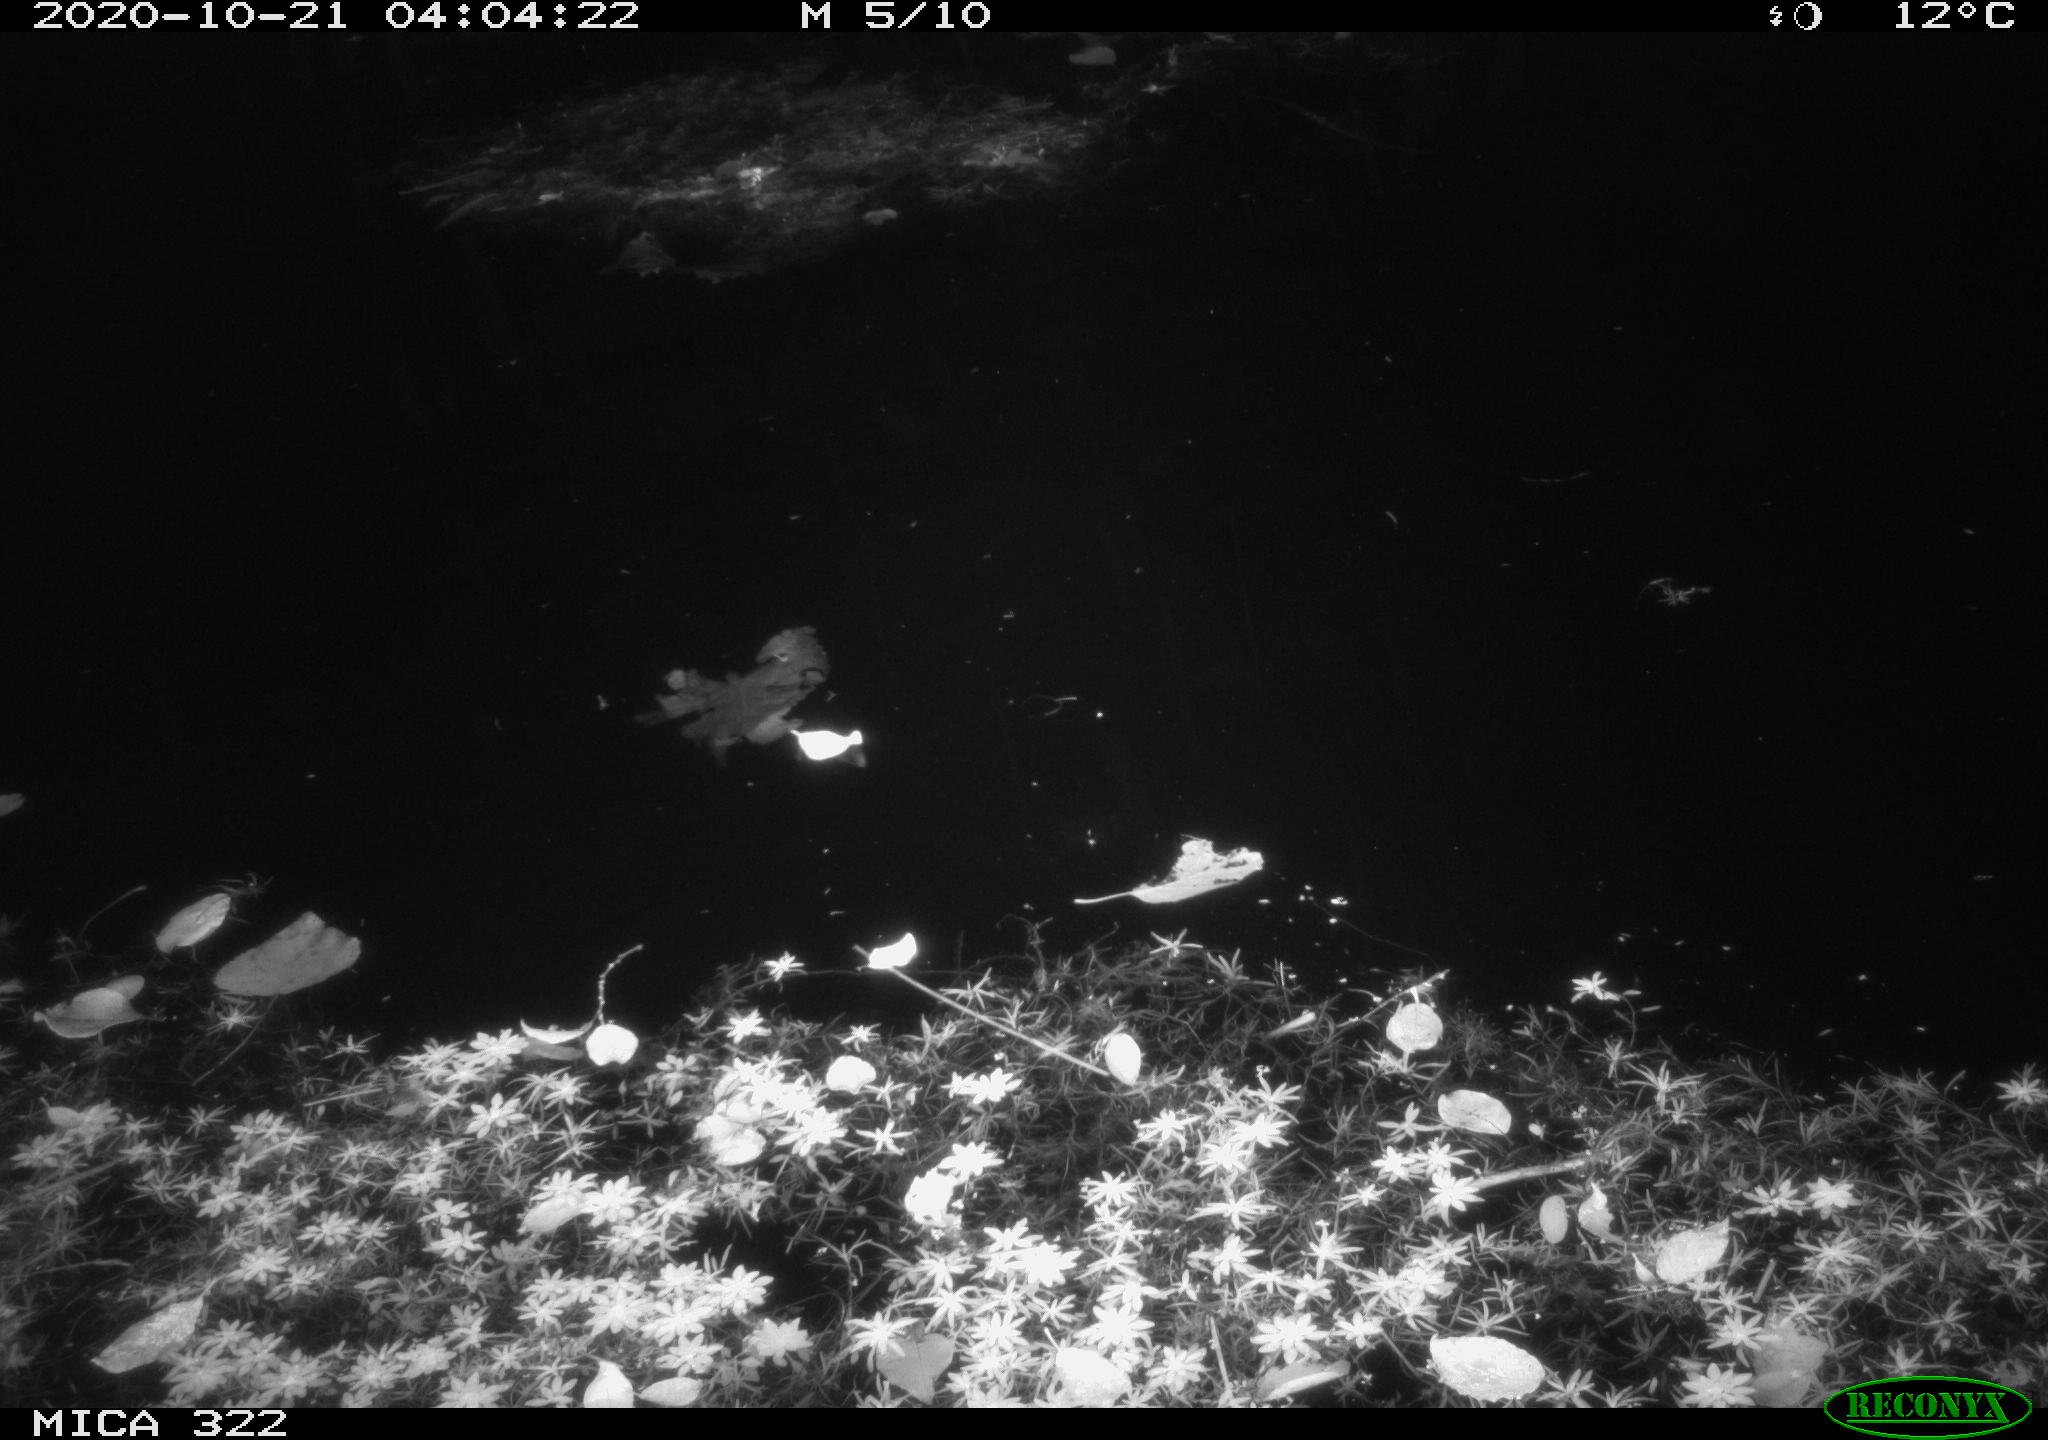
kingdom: Animalia
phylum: Chordata
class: Mammalia
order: Rodentia
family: Muridae
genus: Rattus
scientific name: Rattus norvegicus
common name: Brown rat
